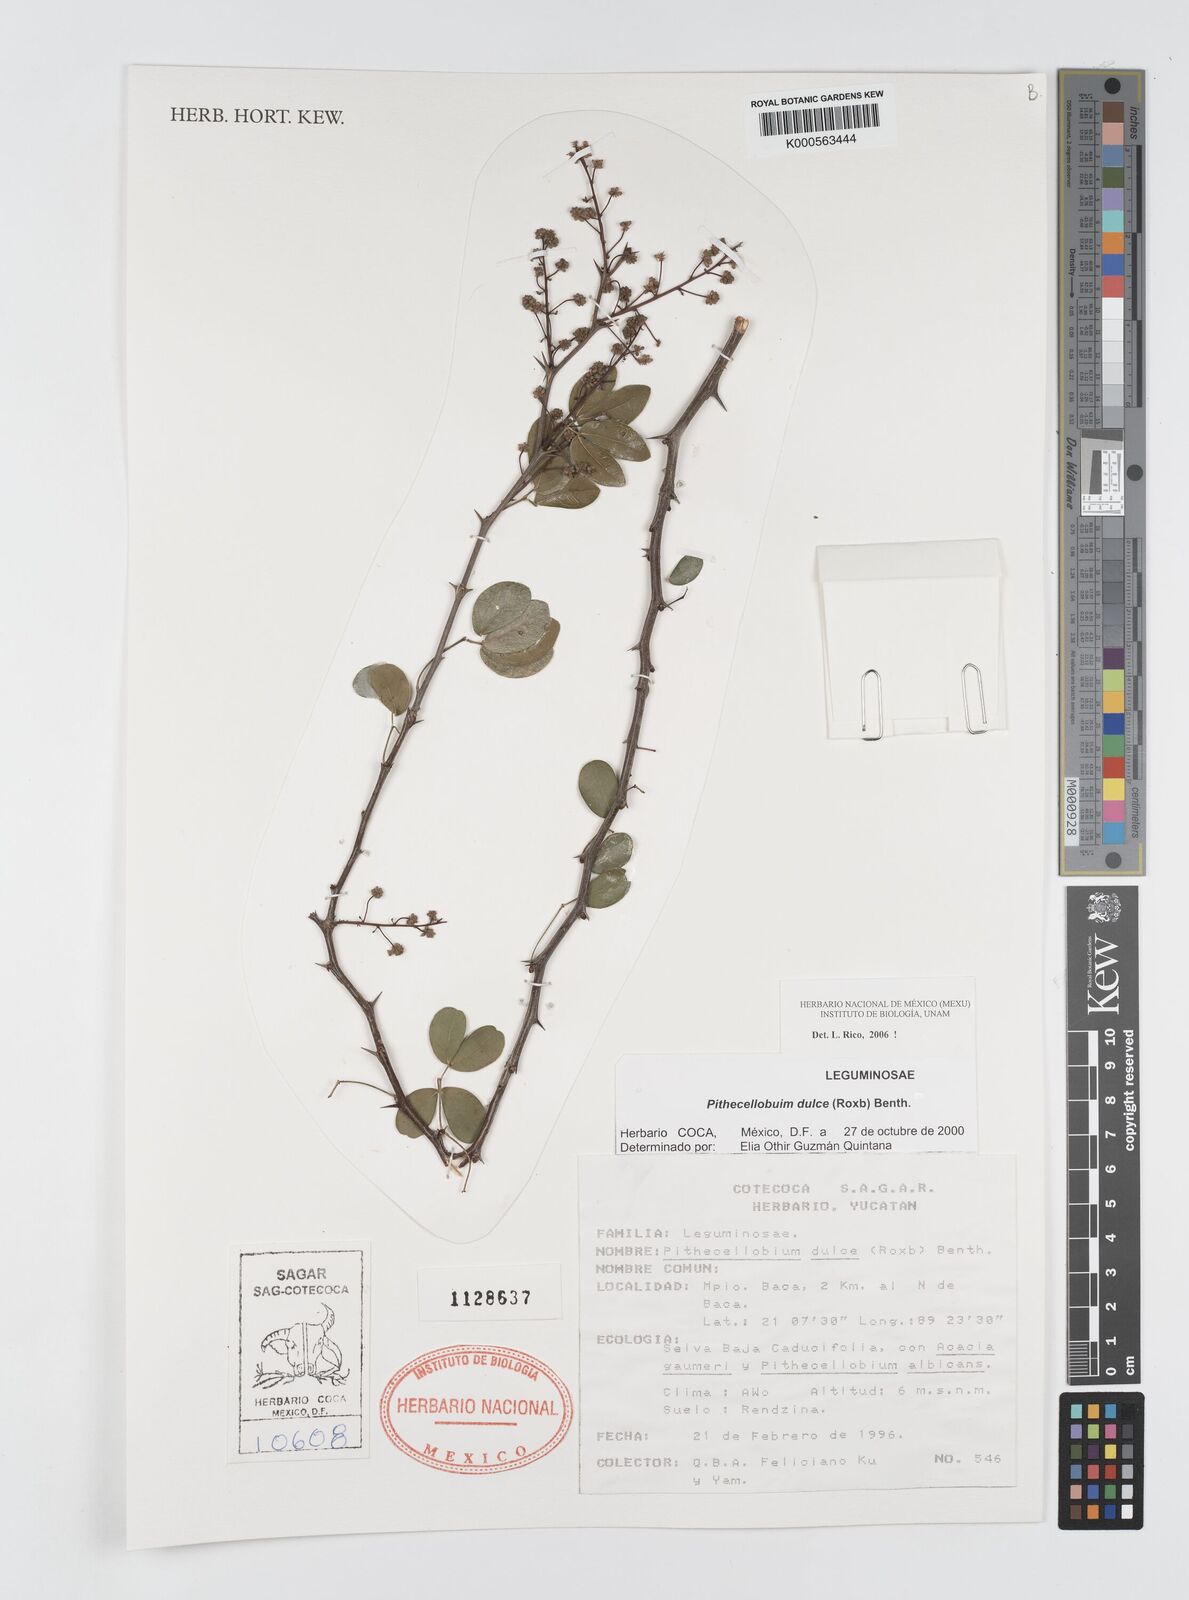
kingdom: Plantae
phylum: Tracheophyta
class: Magnoliopsida
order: Fabales
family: Fabaceae
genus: Pithecellobium
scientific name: Pithecellobium dulce
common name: Monkeypod
